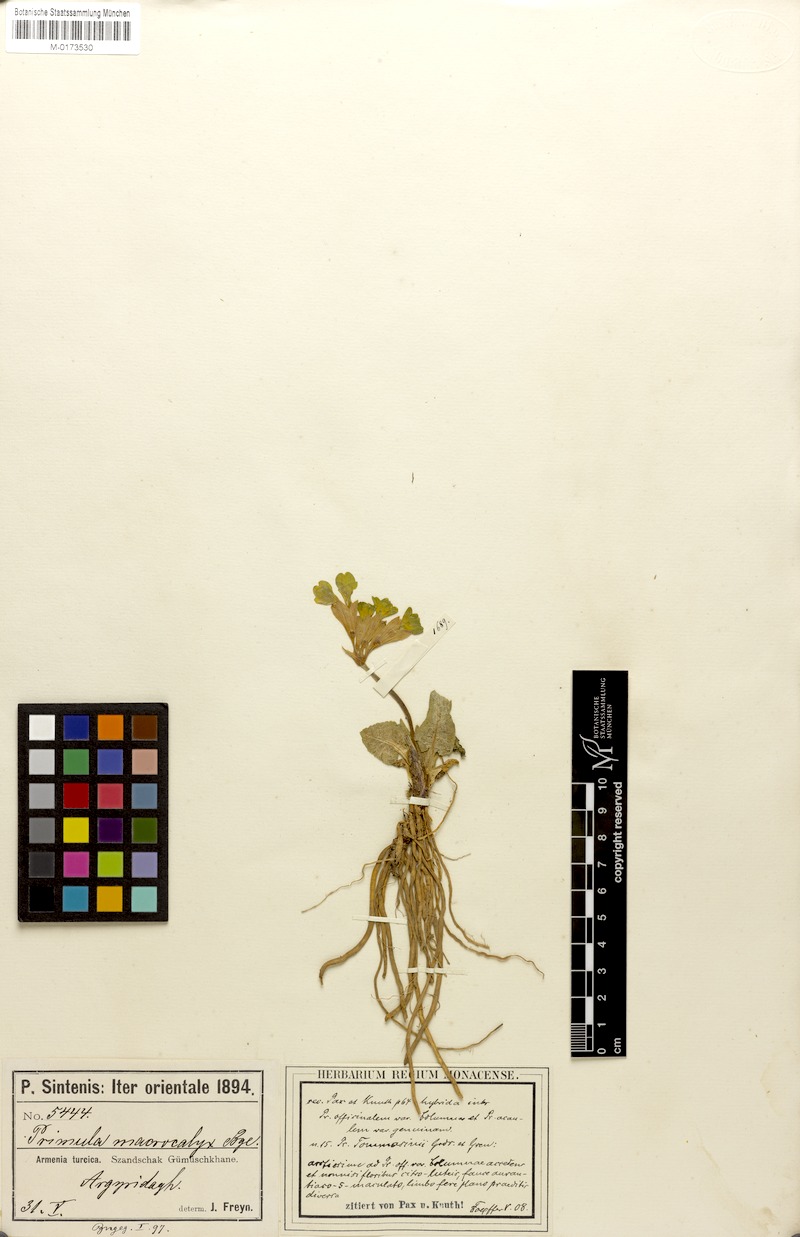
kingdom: Plantae
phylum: Tracheophyta
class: Magnoliopsida
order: Ericales
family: Primulaceae
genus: Primula
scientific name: Primula veris
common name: Cowslip
